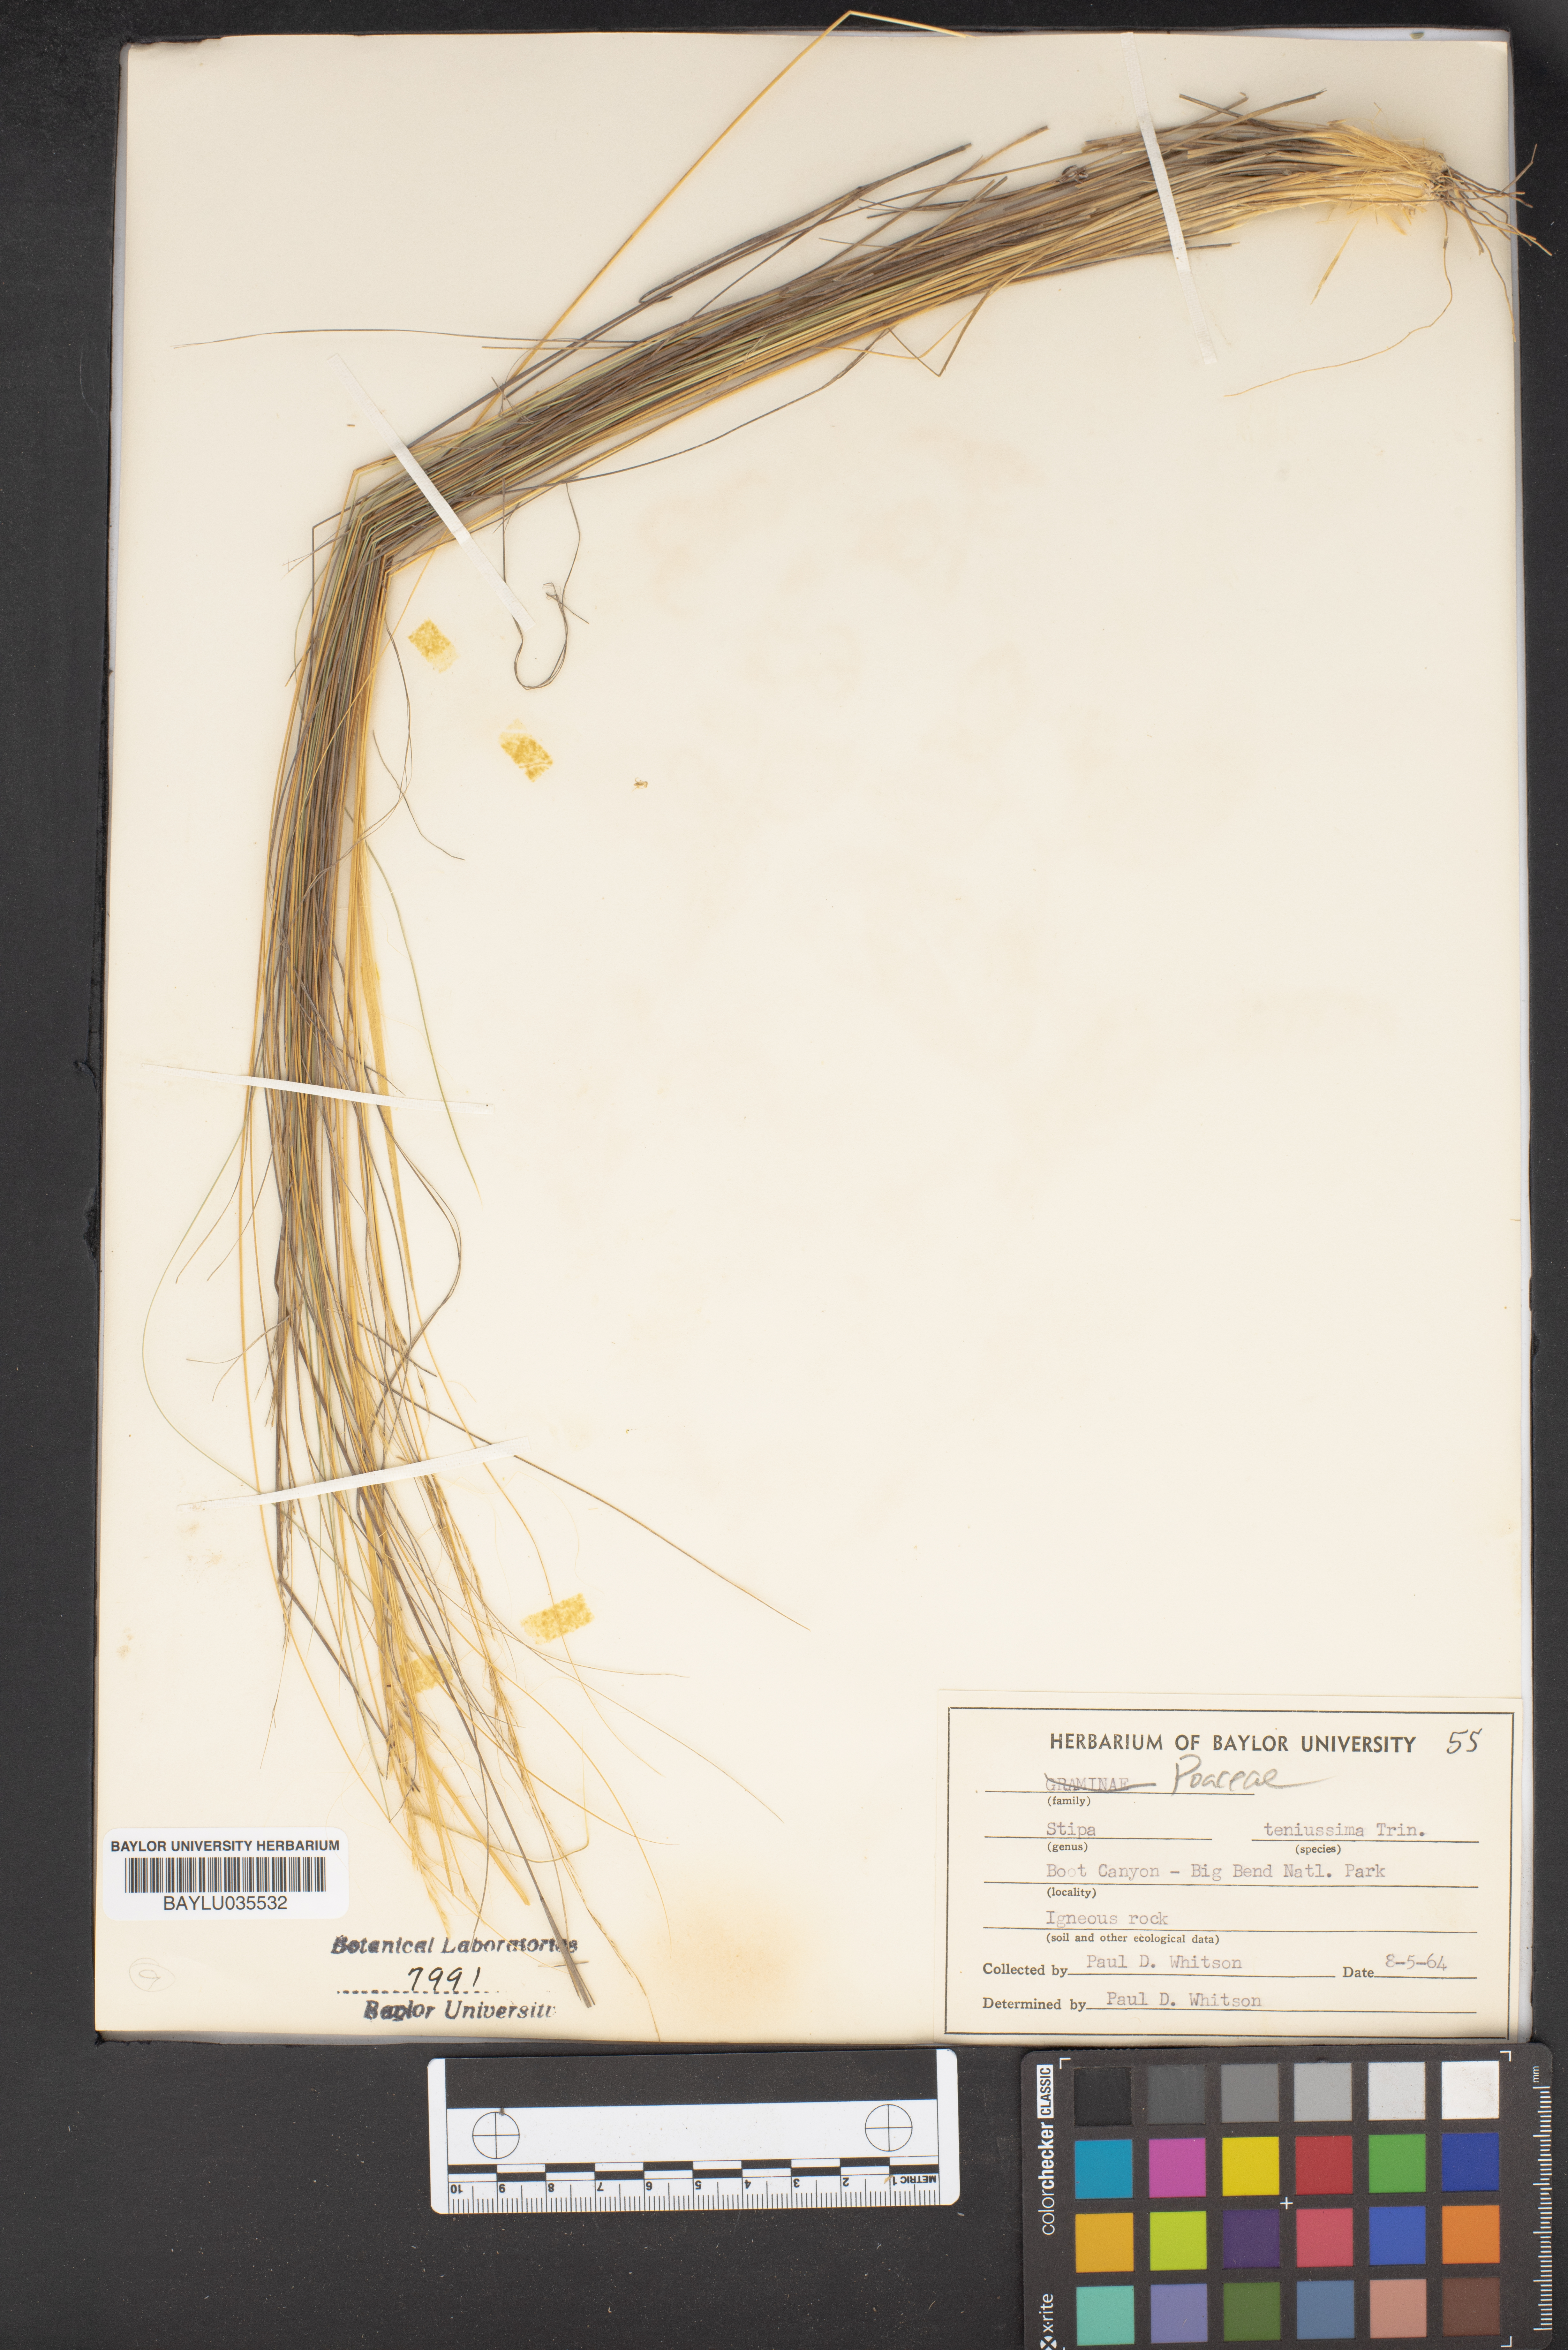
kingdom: Plantae
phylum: Tracheophyta
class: Liliopsida
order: Poales
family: Poaceae
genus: Nassella
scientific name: Nassella tenuissima
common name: Argentine needlegrass
